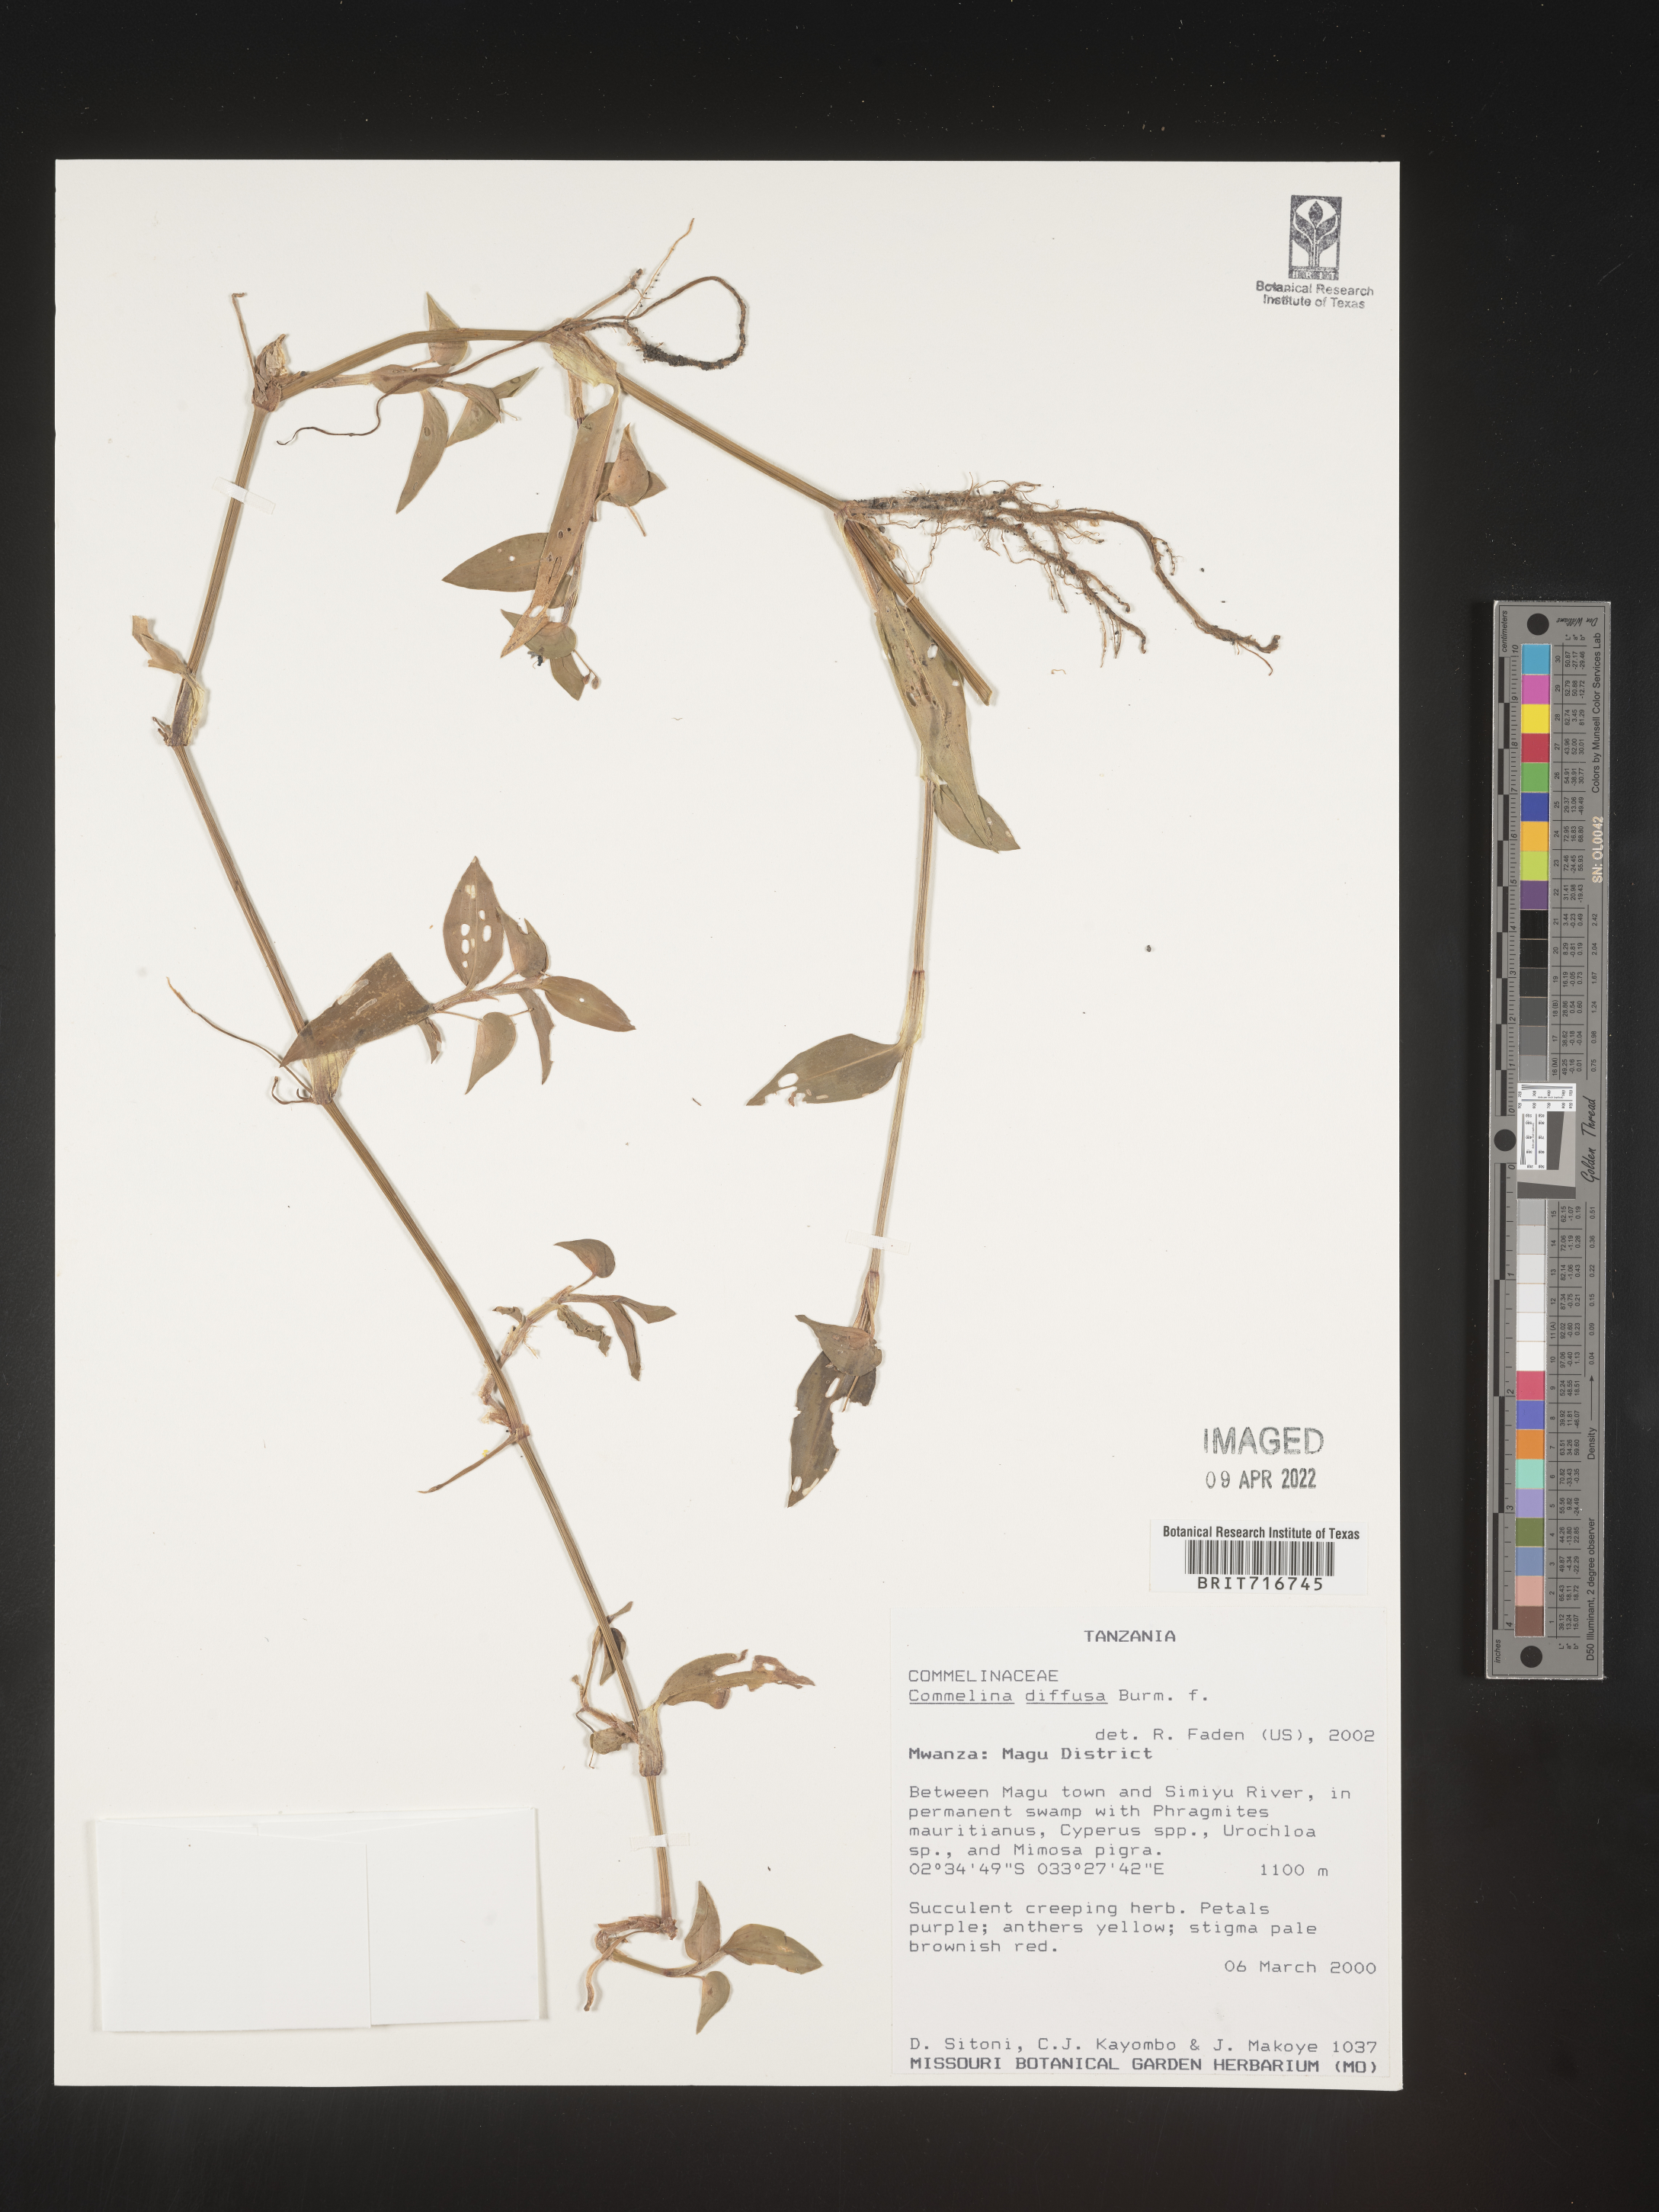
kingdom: Plantae
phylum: Tracheophyta
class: Liliopsida
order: Commelinales
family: Commelinaceae
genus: Commelina
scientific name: Commelina
